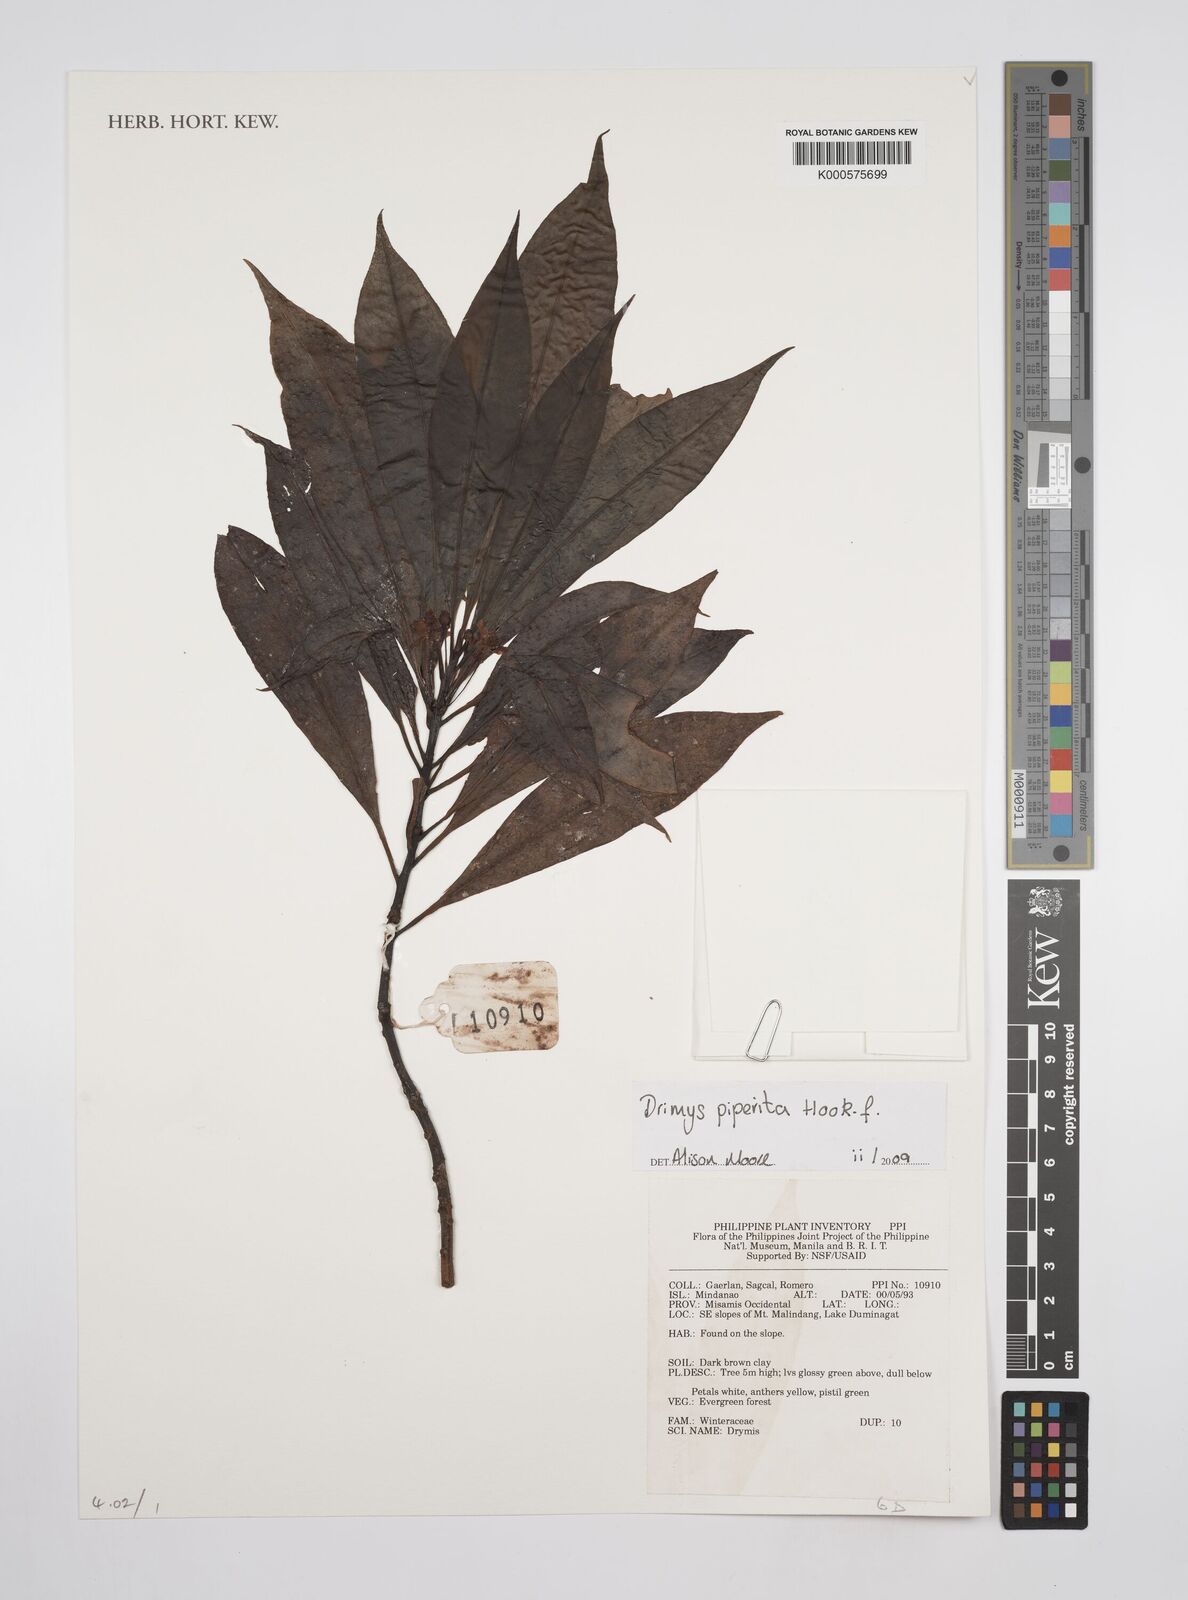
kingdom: Plantae
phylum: Tracheophyta
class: Magnoliopsida
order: Canellales
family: Winteraceae
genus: Drimys
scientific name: Drimys piperita
